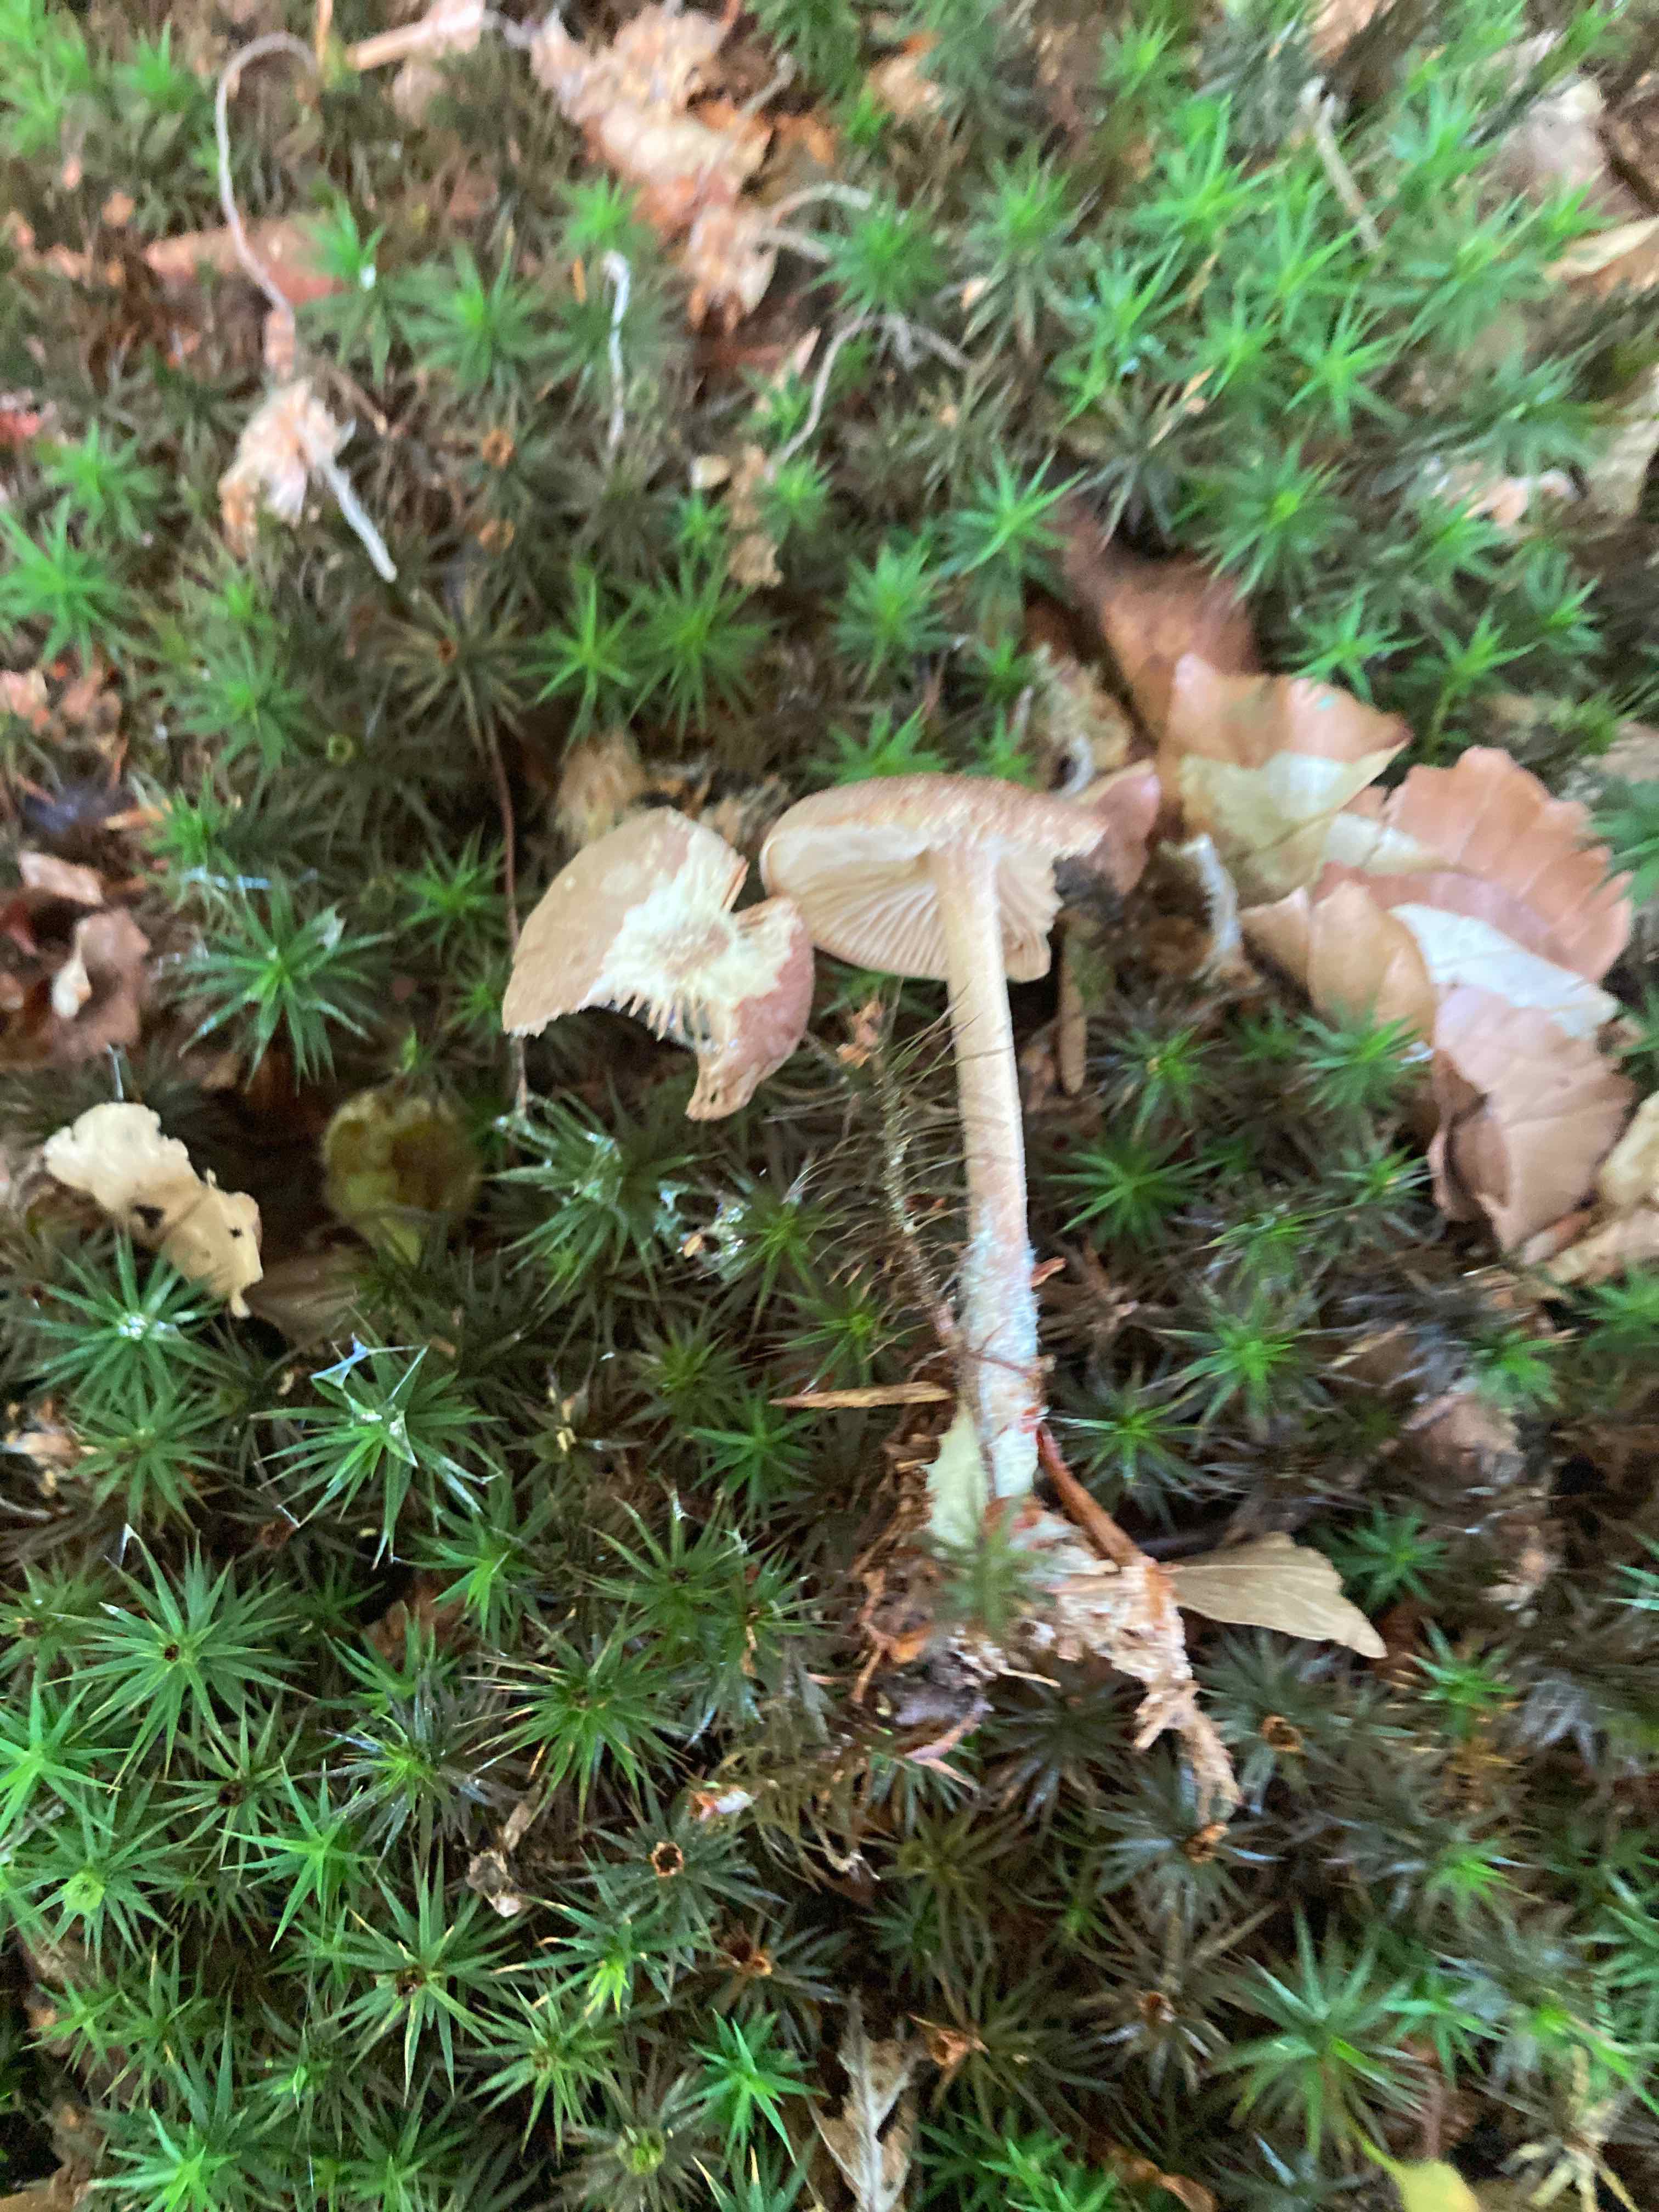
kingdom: Fungi
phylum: Basidiomycota
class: Agaricomycetes
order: Agaricales
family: Omphalotaceae
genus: Collybiopsis
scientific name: Collybiopsis peronata
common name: bestøvlet fladhat
